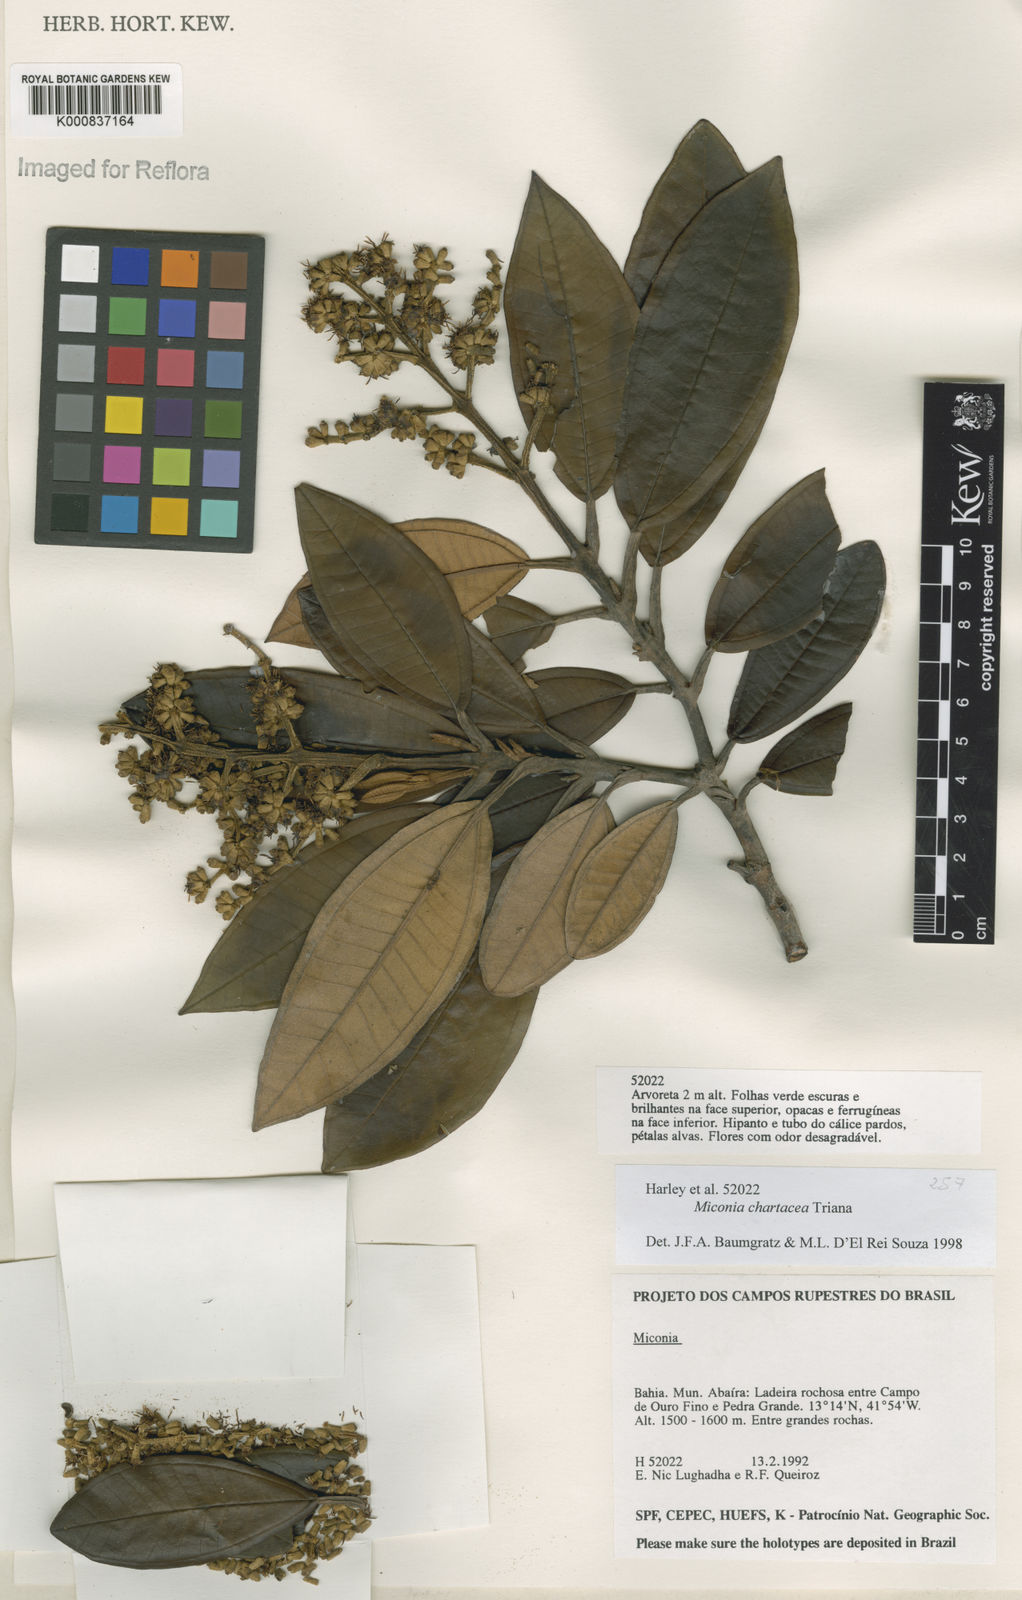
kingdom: Plantae
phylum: Tracheophyta
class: Magnoliopsida
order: Myrtales
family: Melastomataceae
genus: Miconia
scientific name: Miconia chartacea
